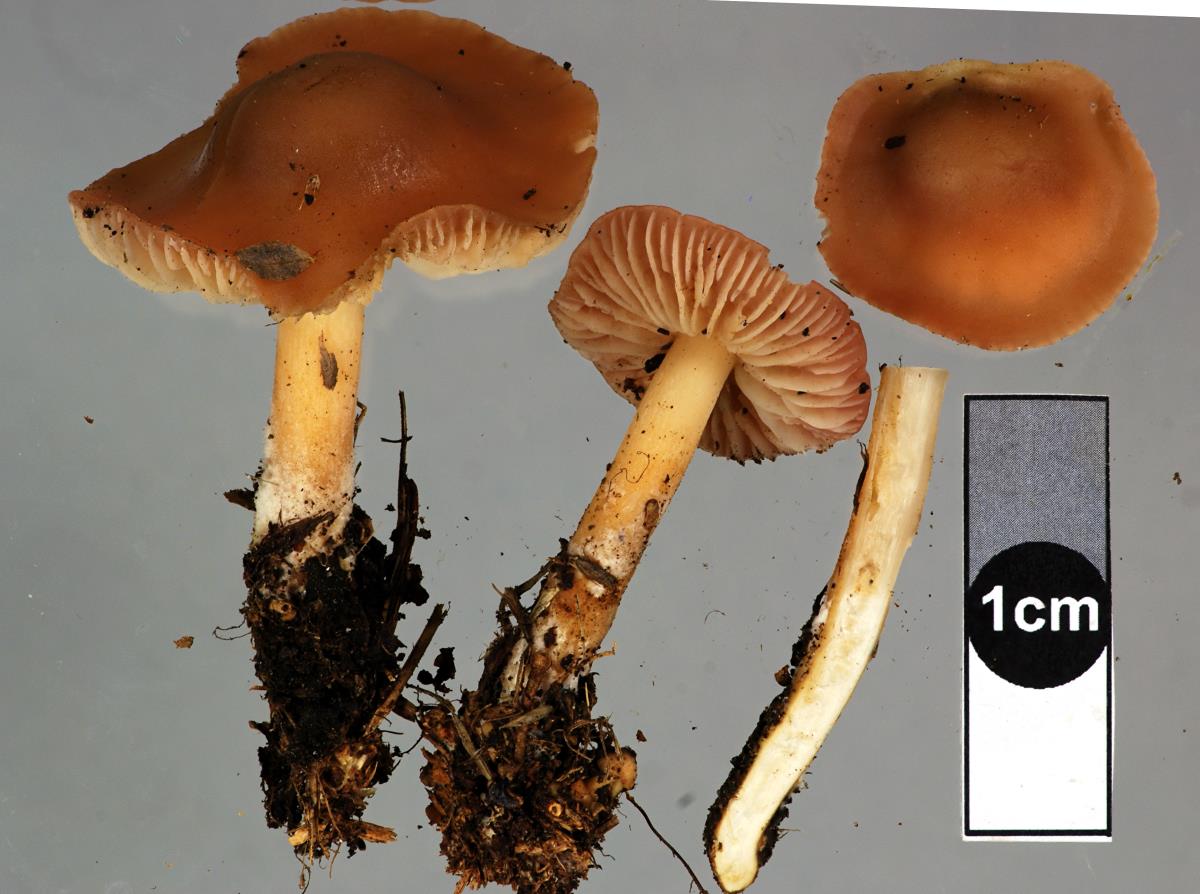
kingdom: Fungi
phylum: Basidiomycota
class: Agaricomycetes
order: Agaricales
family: Marasmiaceae
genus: Marasmius
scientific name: Marasmius oreades
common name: Fairy ring champignon
